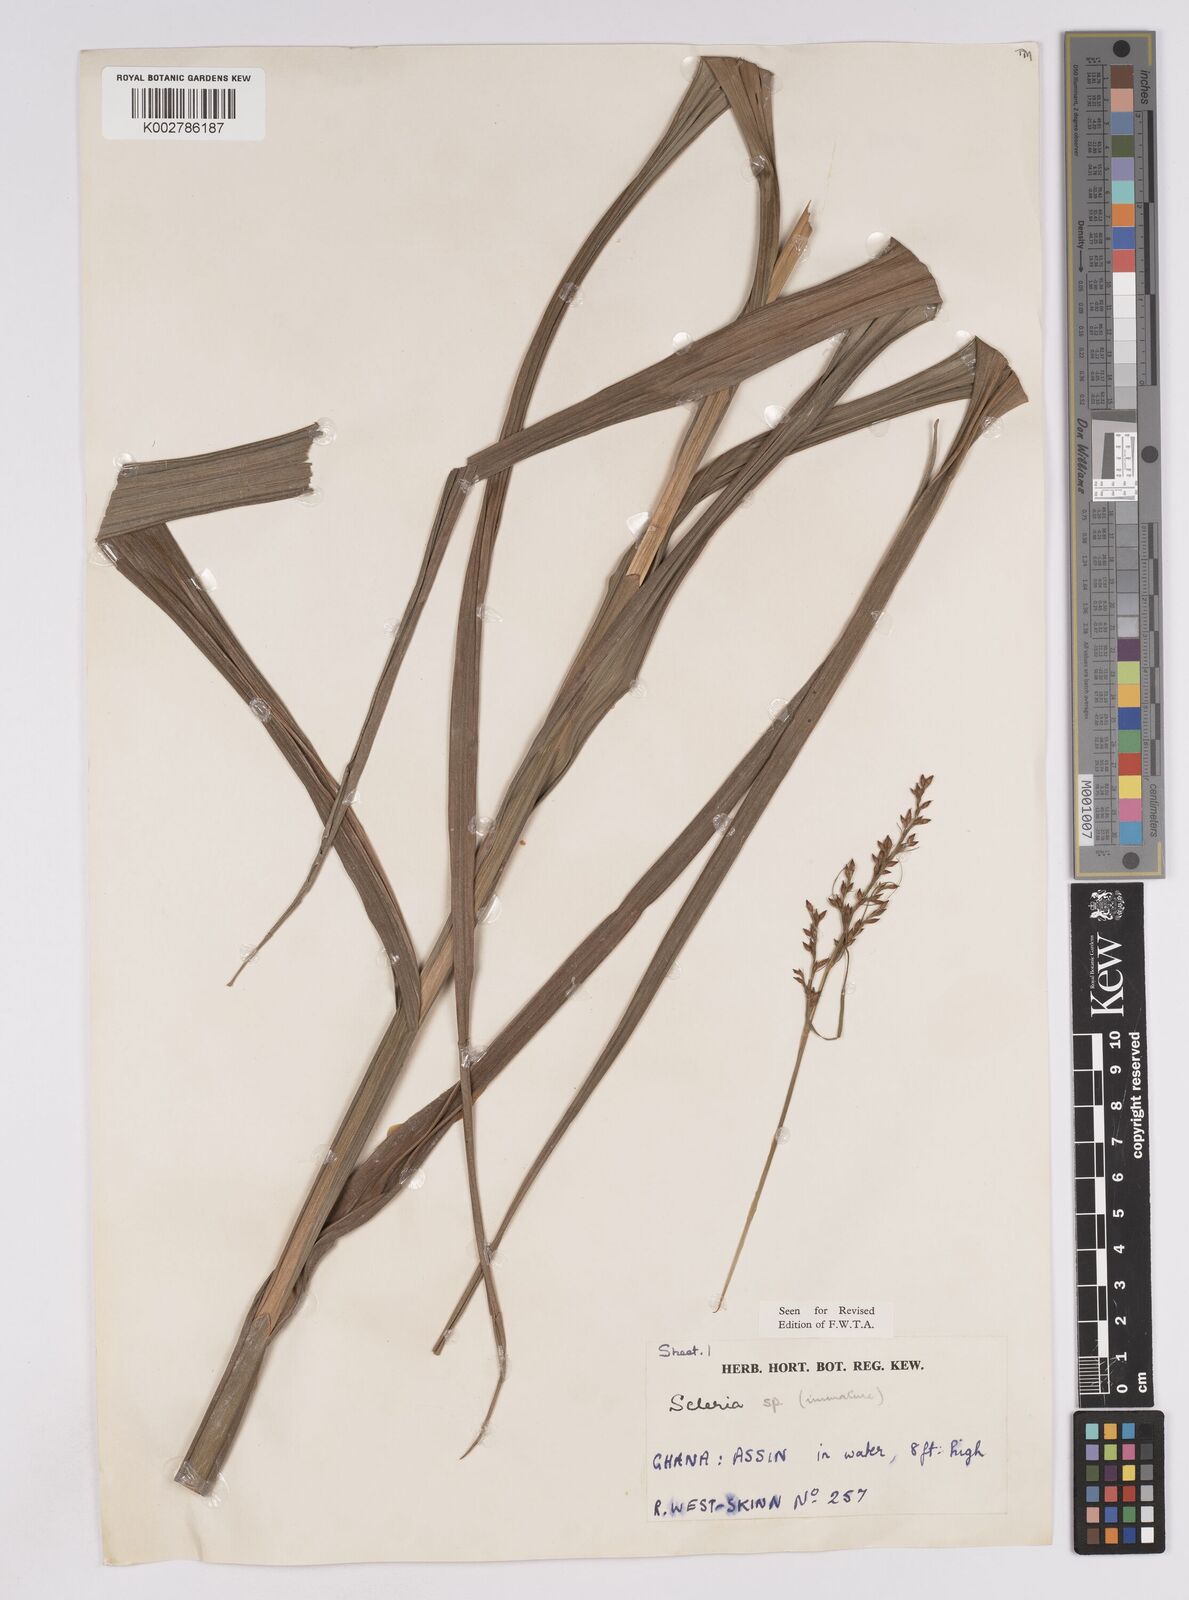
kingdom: Plantae
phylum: Tracheophyta
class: Liliopsida
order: Poales
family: Cyperaceae
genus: Scleria
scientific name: Scleria verrucosa
